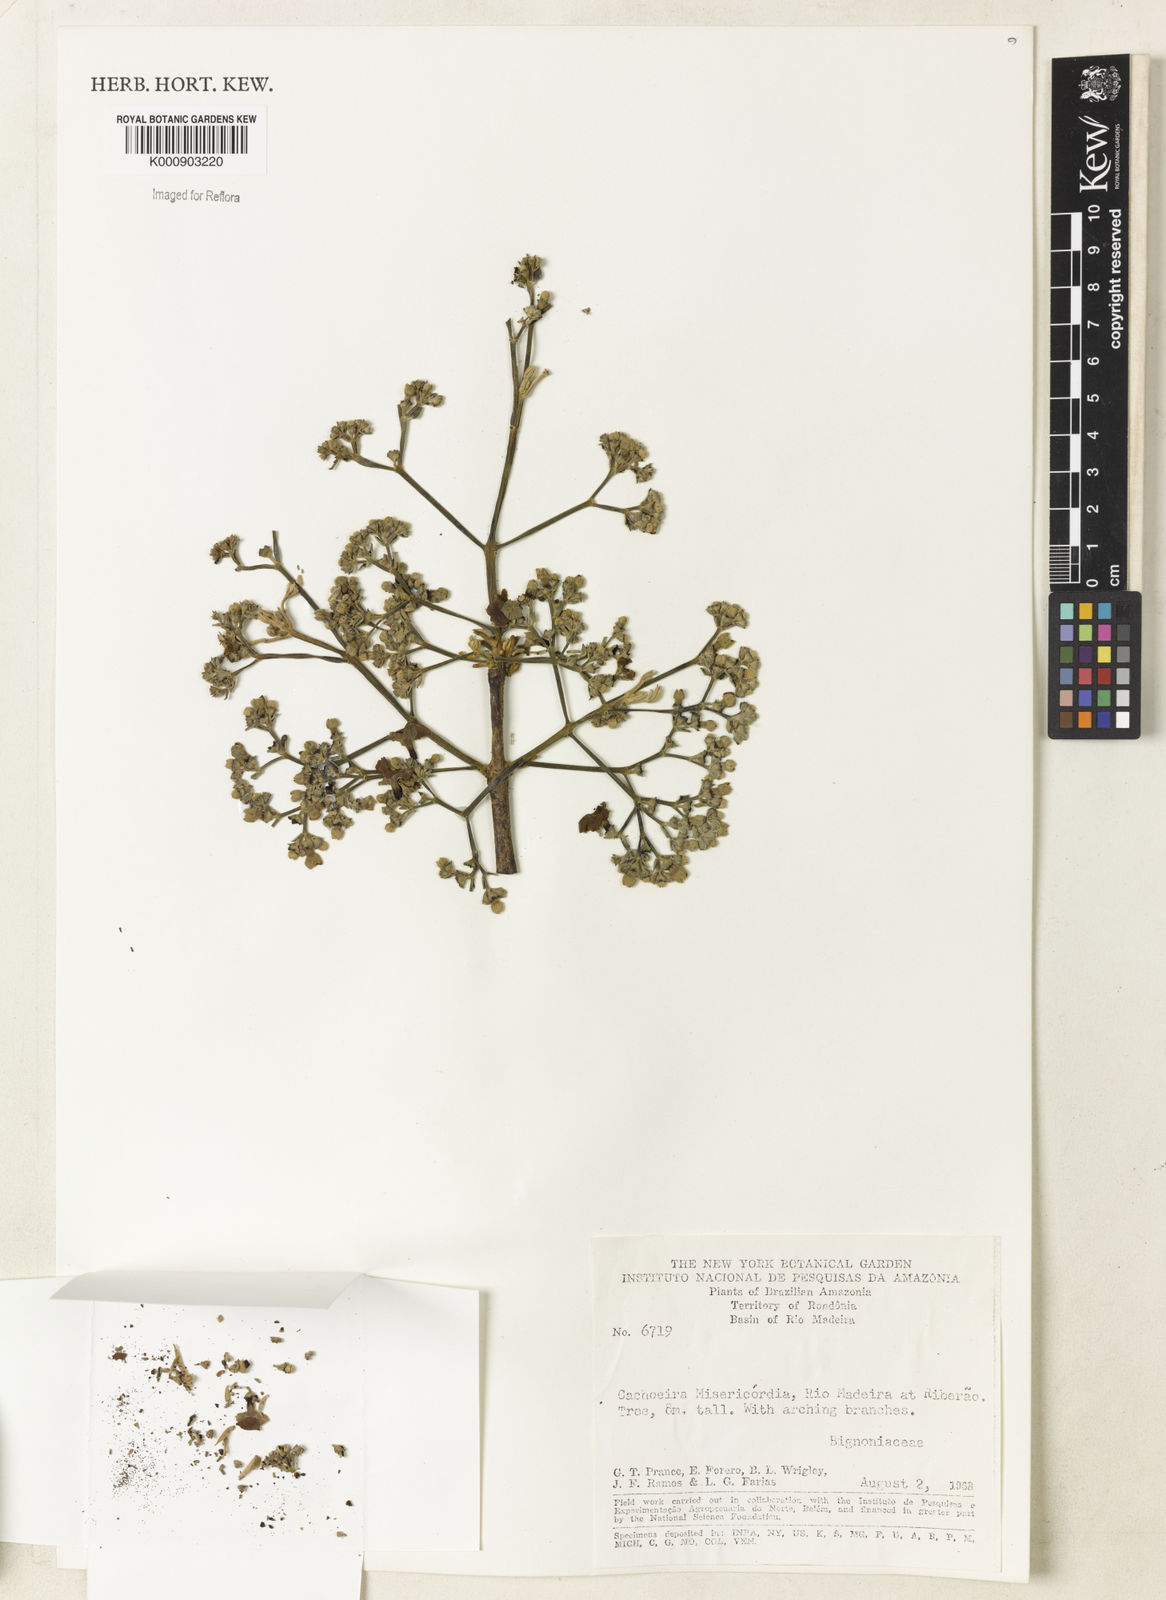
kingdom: Plantae
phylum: Tracheophyta
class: Magnoliopsida
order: Lamiales
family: Bignoniaceae
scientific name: Bignoniaceae
